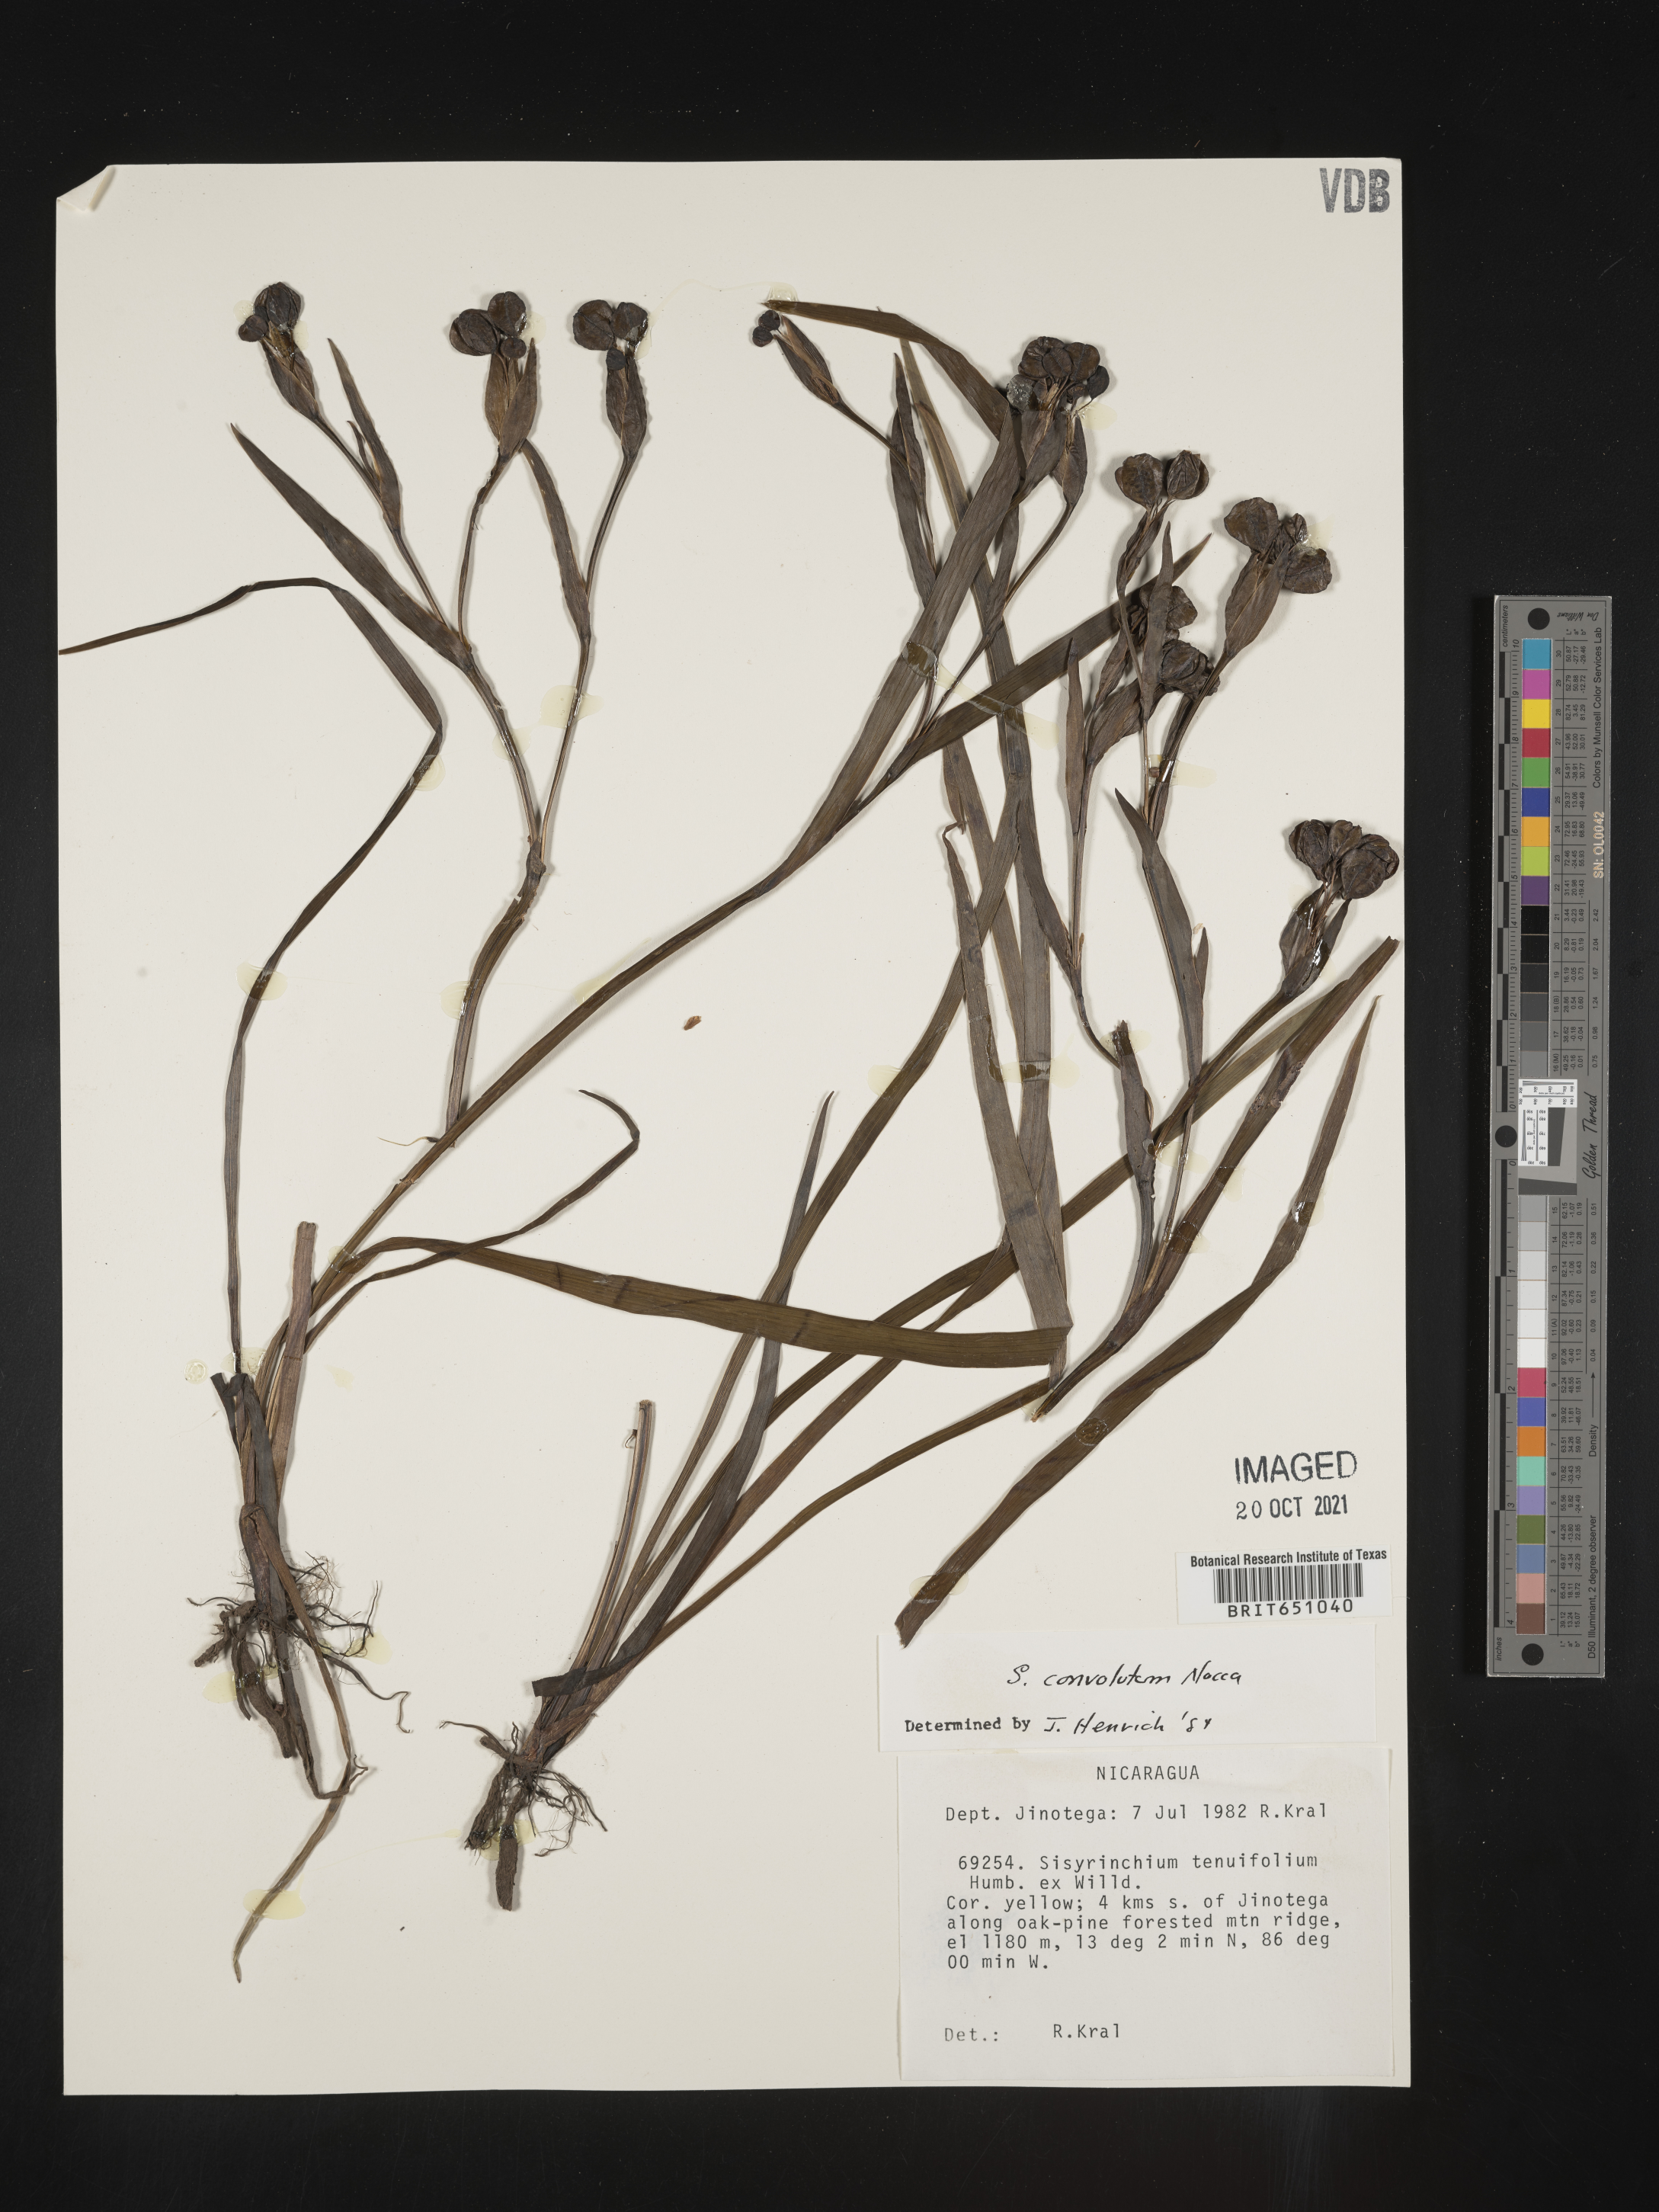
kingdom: Plantae
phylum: Tracheophyta
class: Liliopsida
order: Asparagales
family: Iridaceae
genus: Sisyrinchium
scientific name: Sisyrinchium
